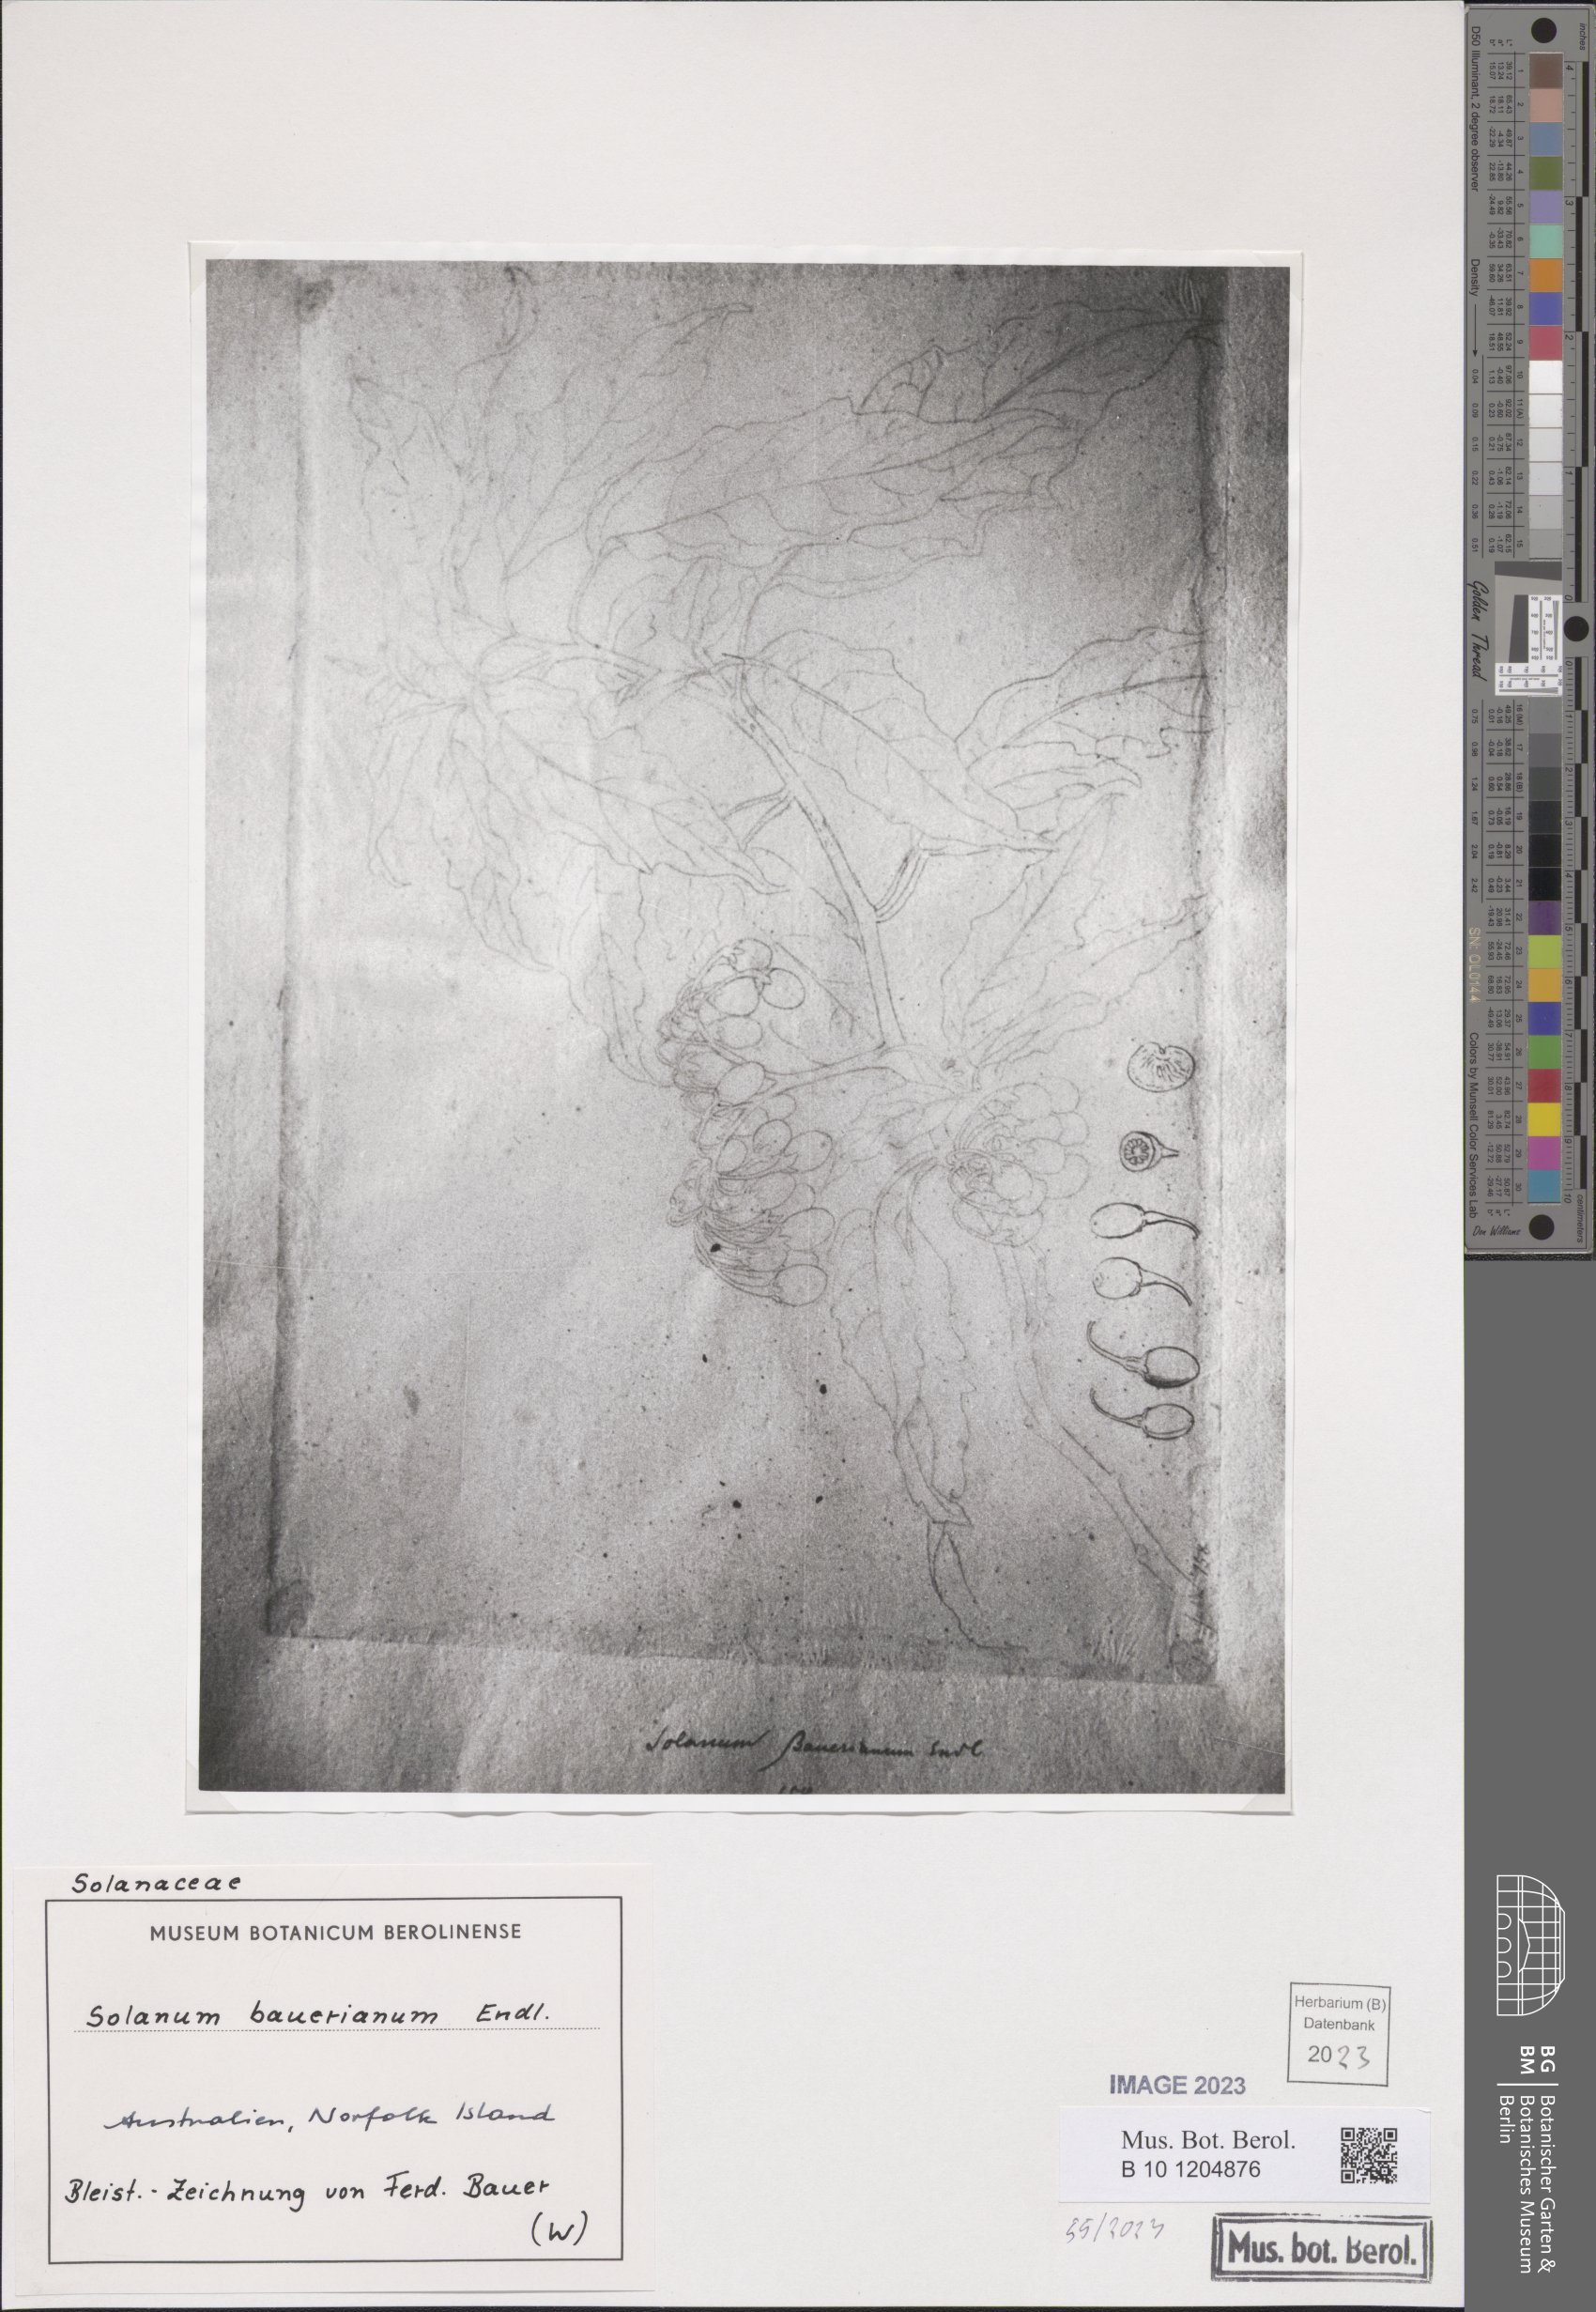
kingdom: Plantae
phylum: Tracheophyta
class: Magnoliopsida
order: Solanales
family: Solanaceae
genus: Solanum
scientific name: Solanum bauerianum
